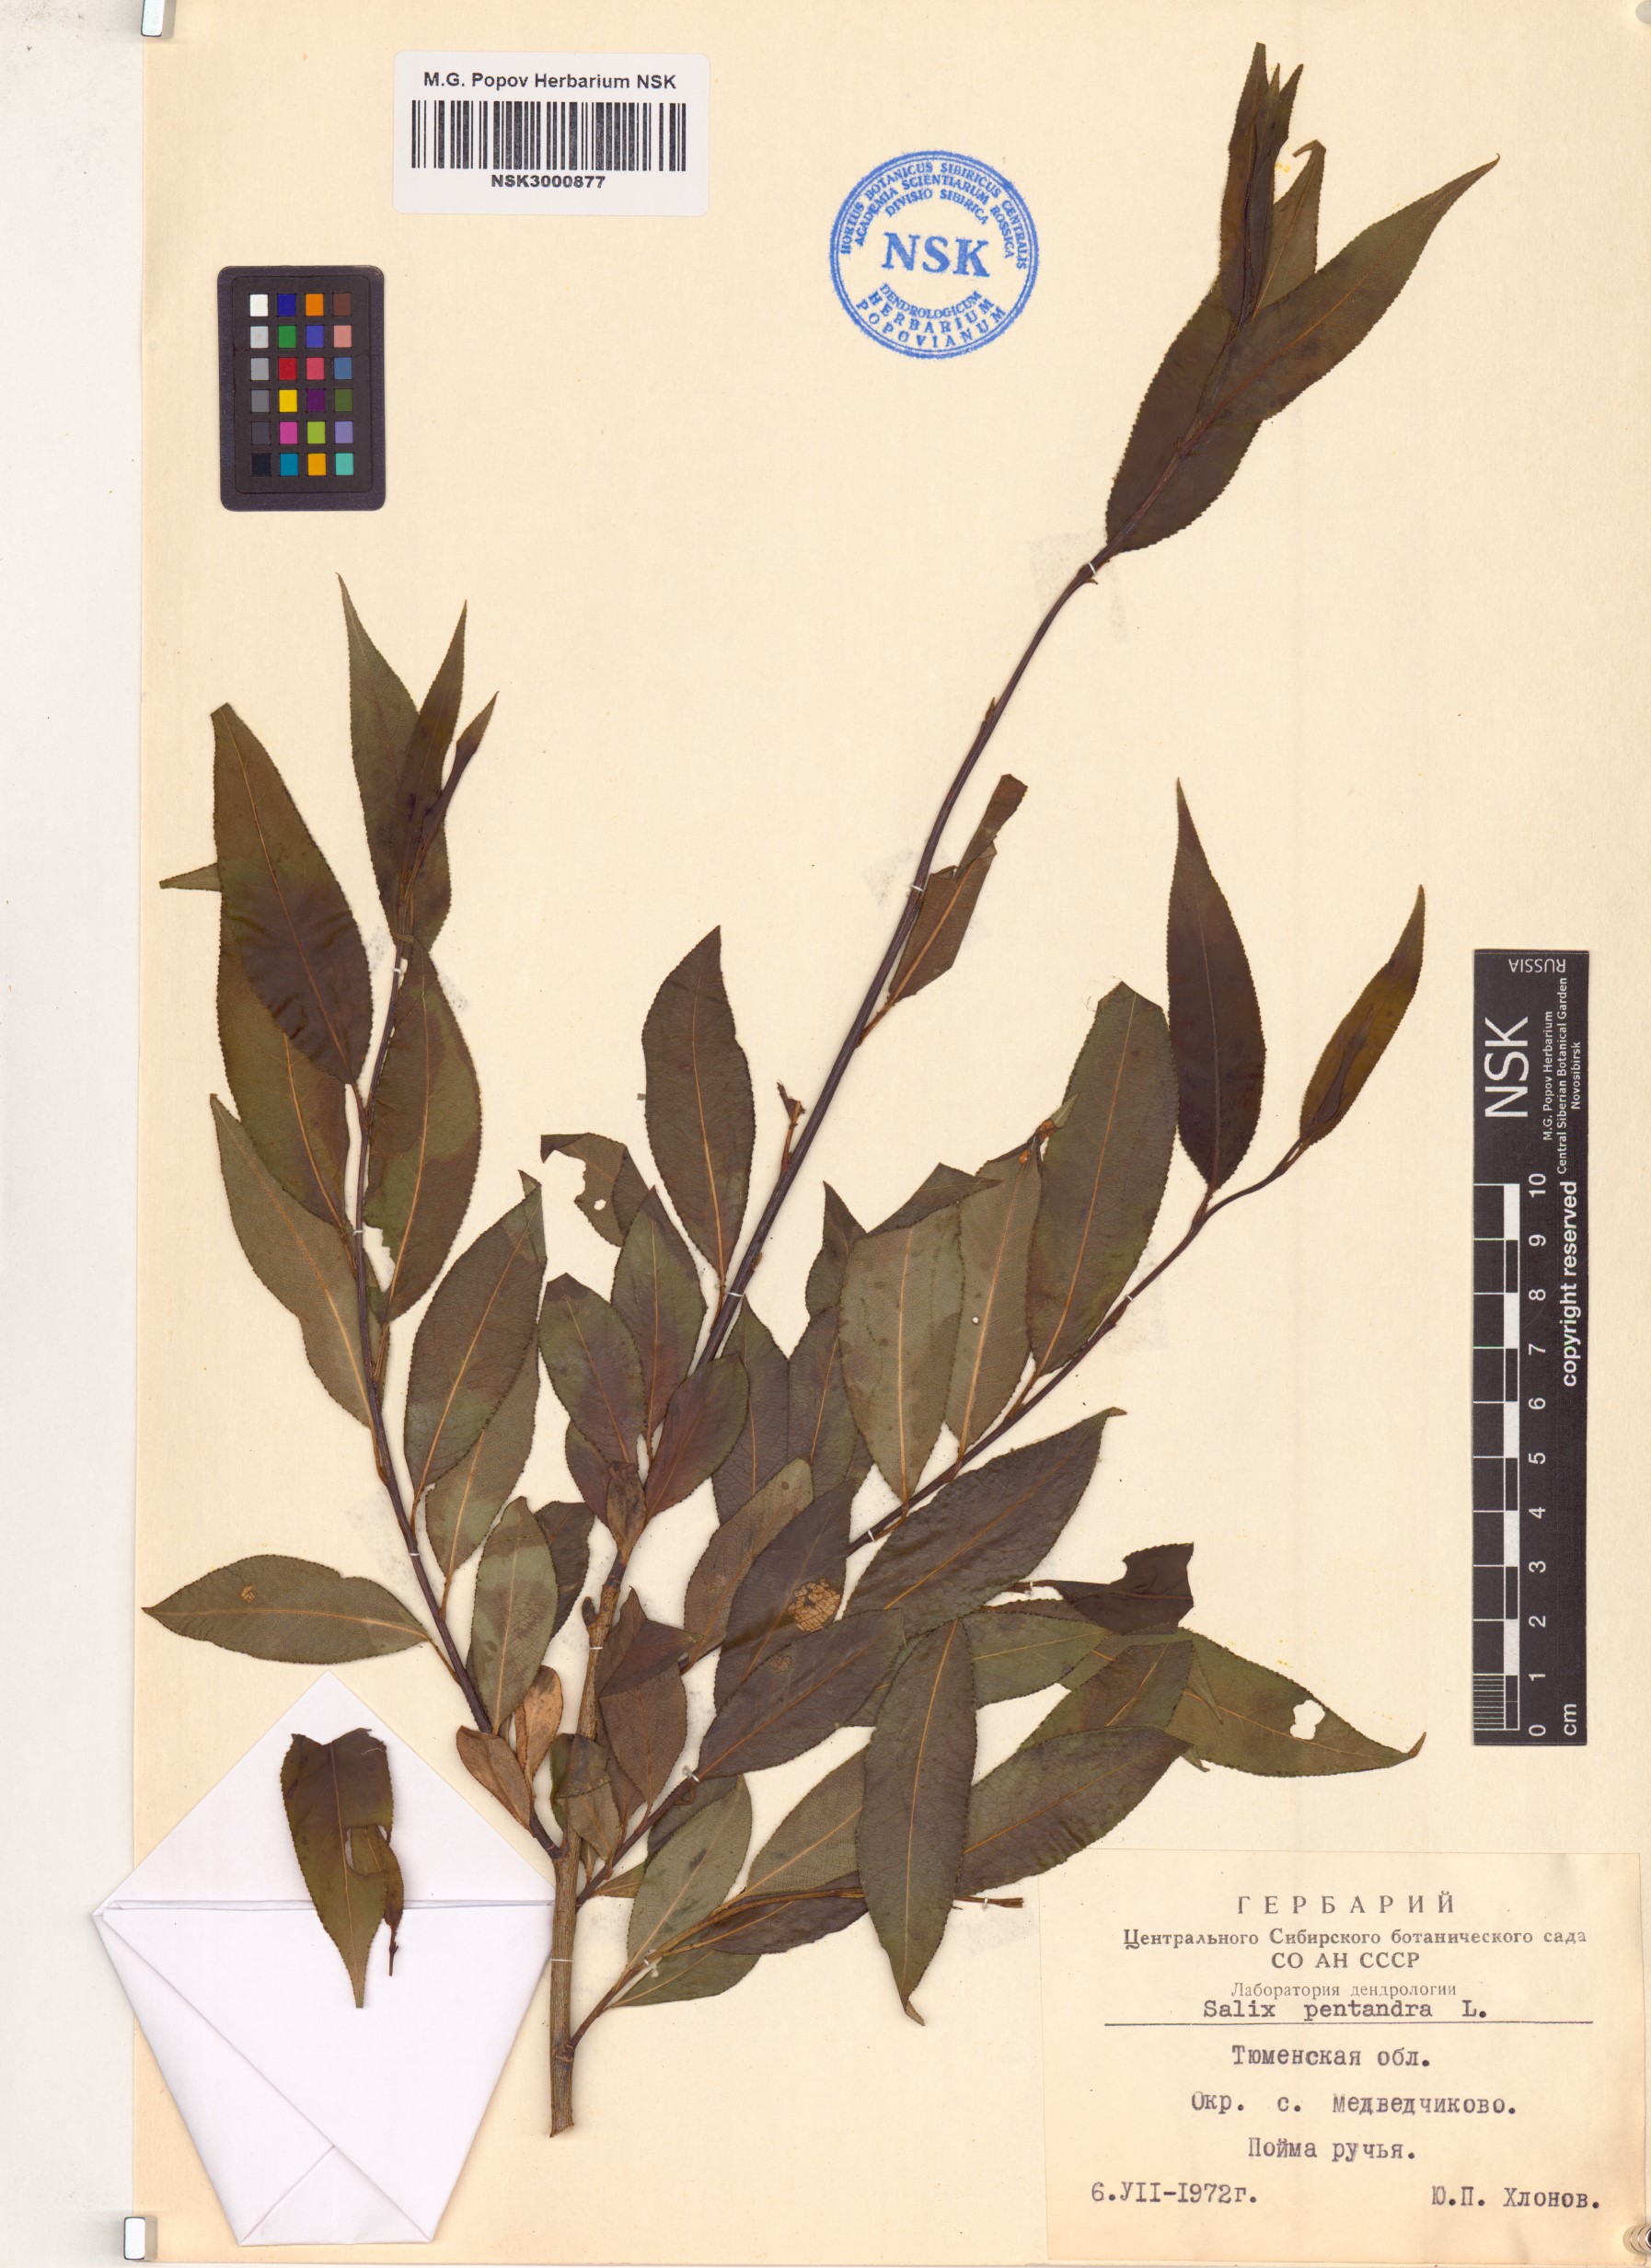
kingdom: Plantae
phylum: Tracheophyta
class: Magnoliopsida
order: Malpighiales
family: Salicaceae
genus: Salix
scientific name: Salix pentandra
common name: Bay willow
